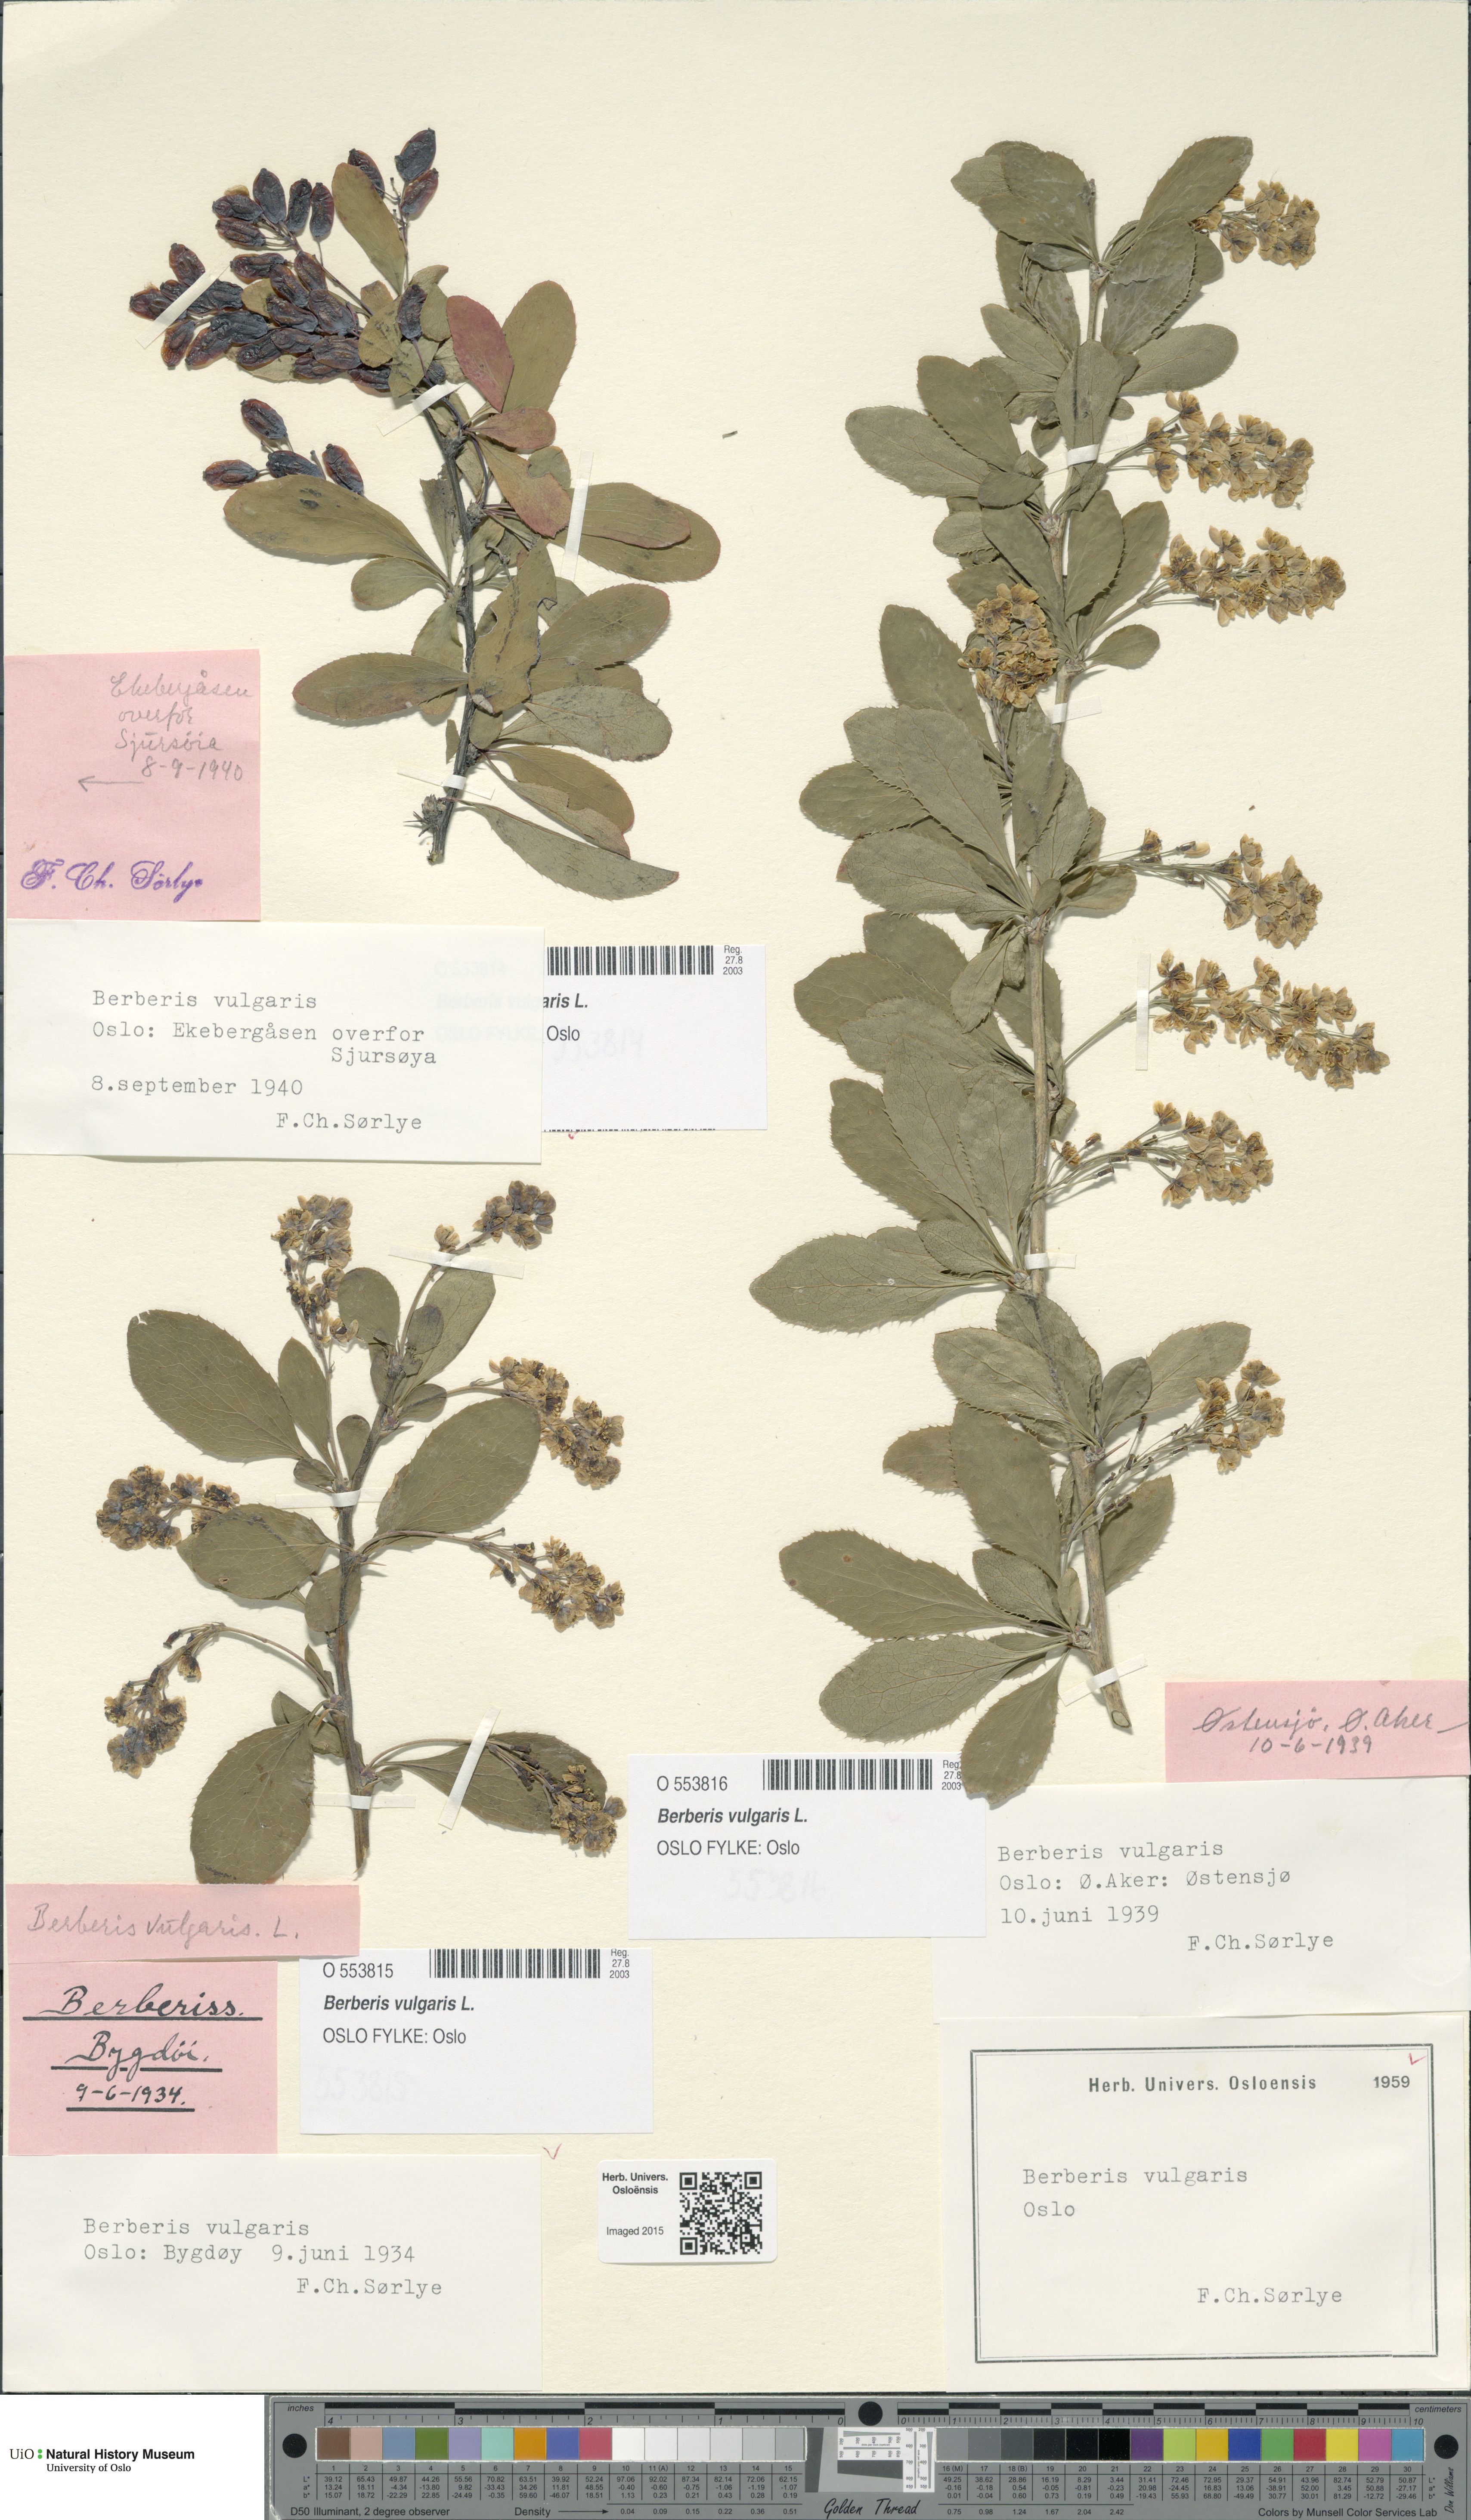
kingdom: Plantae
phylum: Tracheophyta
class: Magnoliopsida
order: Ranunculales
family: Berberidaceae
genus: Berberis
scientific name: Berberis vulgaris
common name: Barberry
